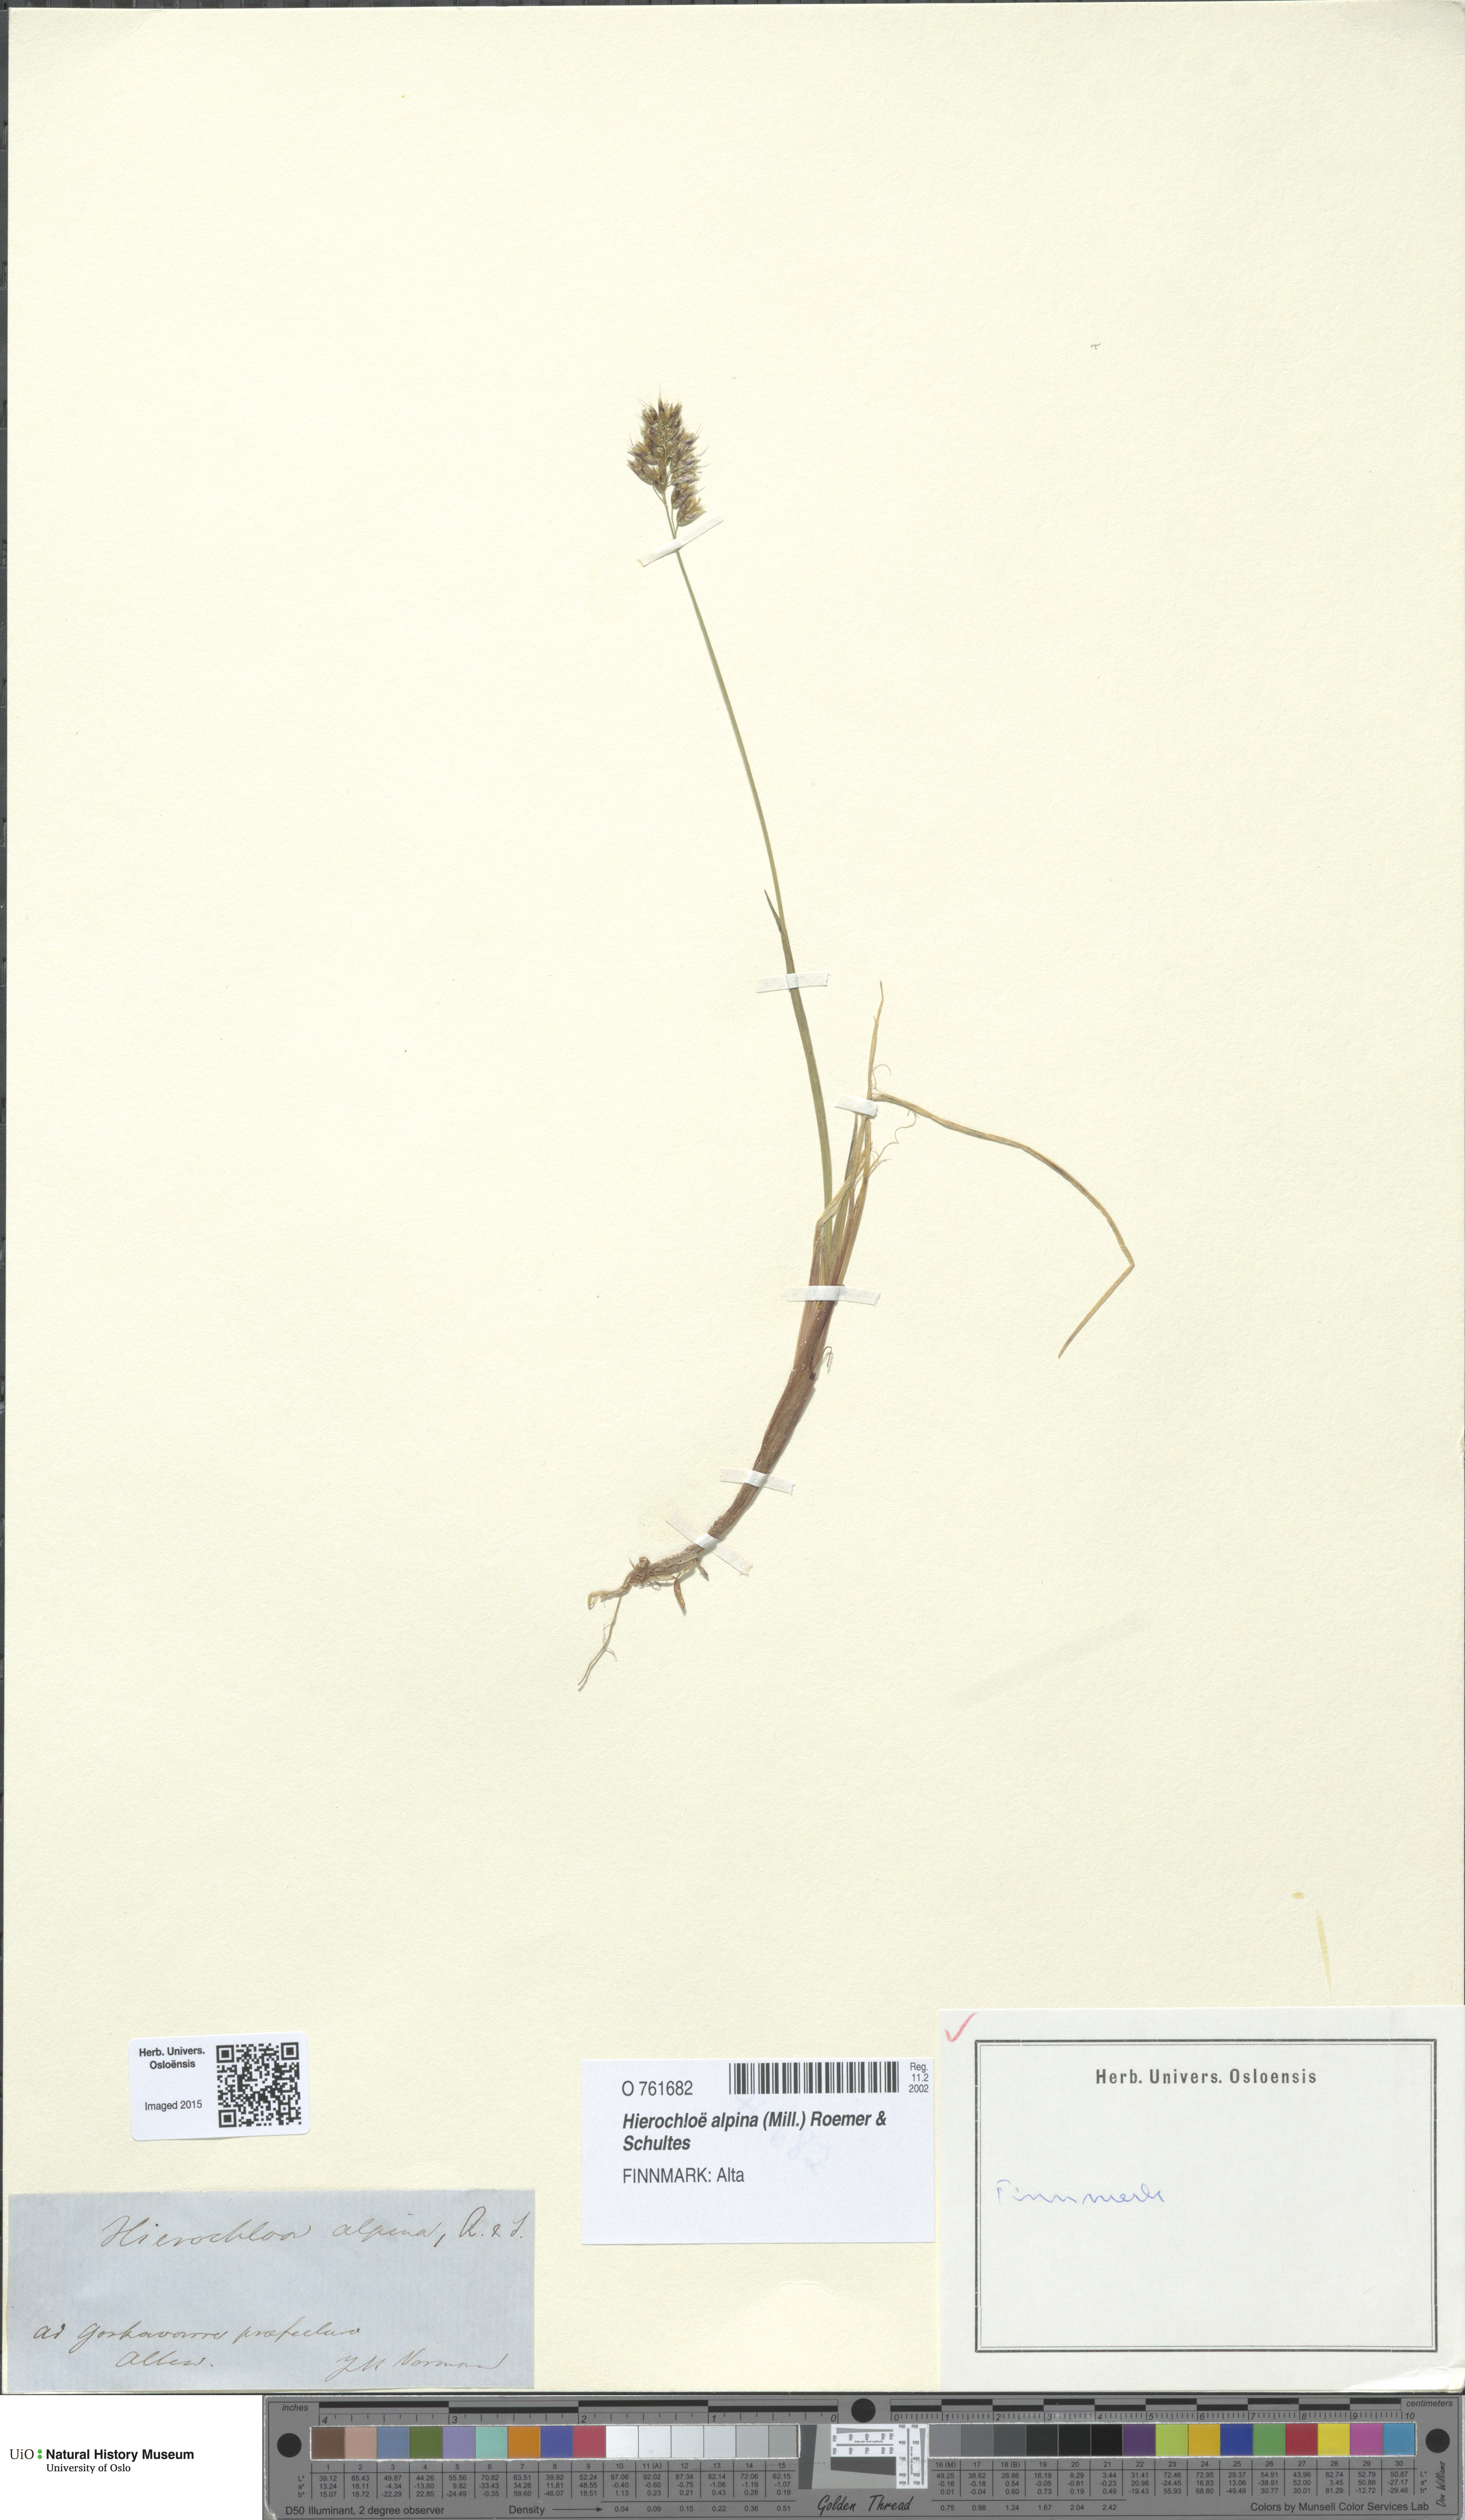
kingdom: Plantae
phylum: Tracheophyta
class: Liliopsida
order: Poales
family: Poaceae
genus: Anthoxanthum
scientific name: Anthoxanthum monticola
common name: Alpine sweetgrass
